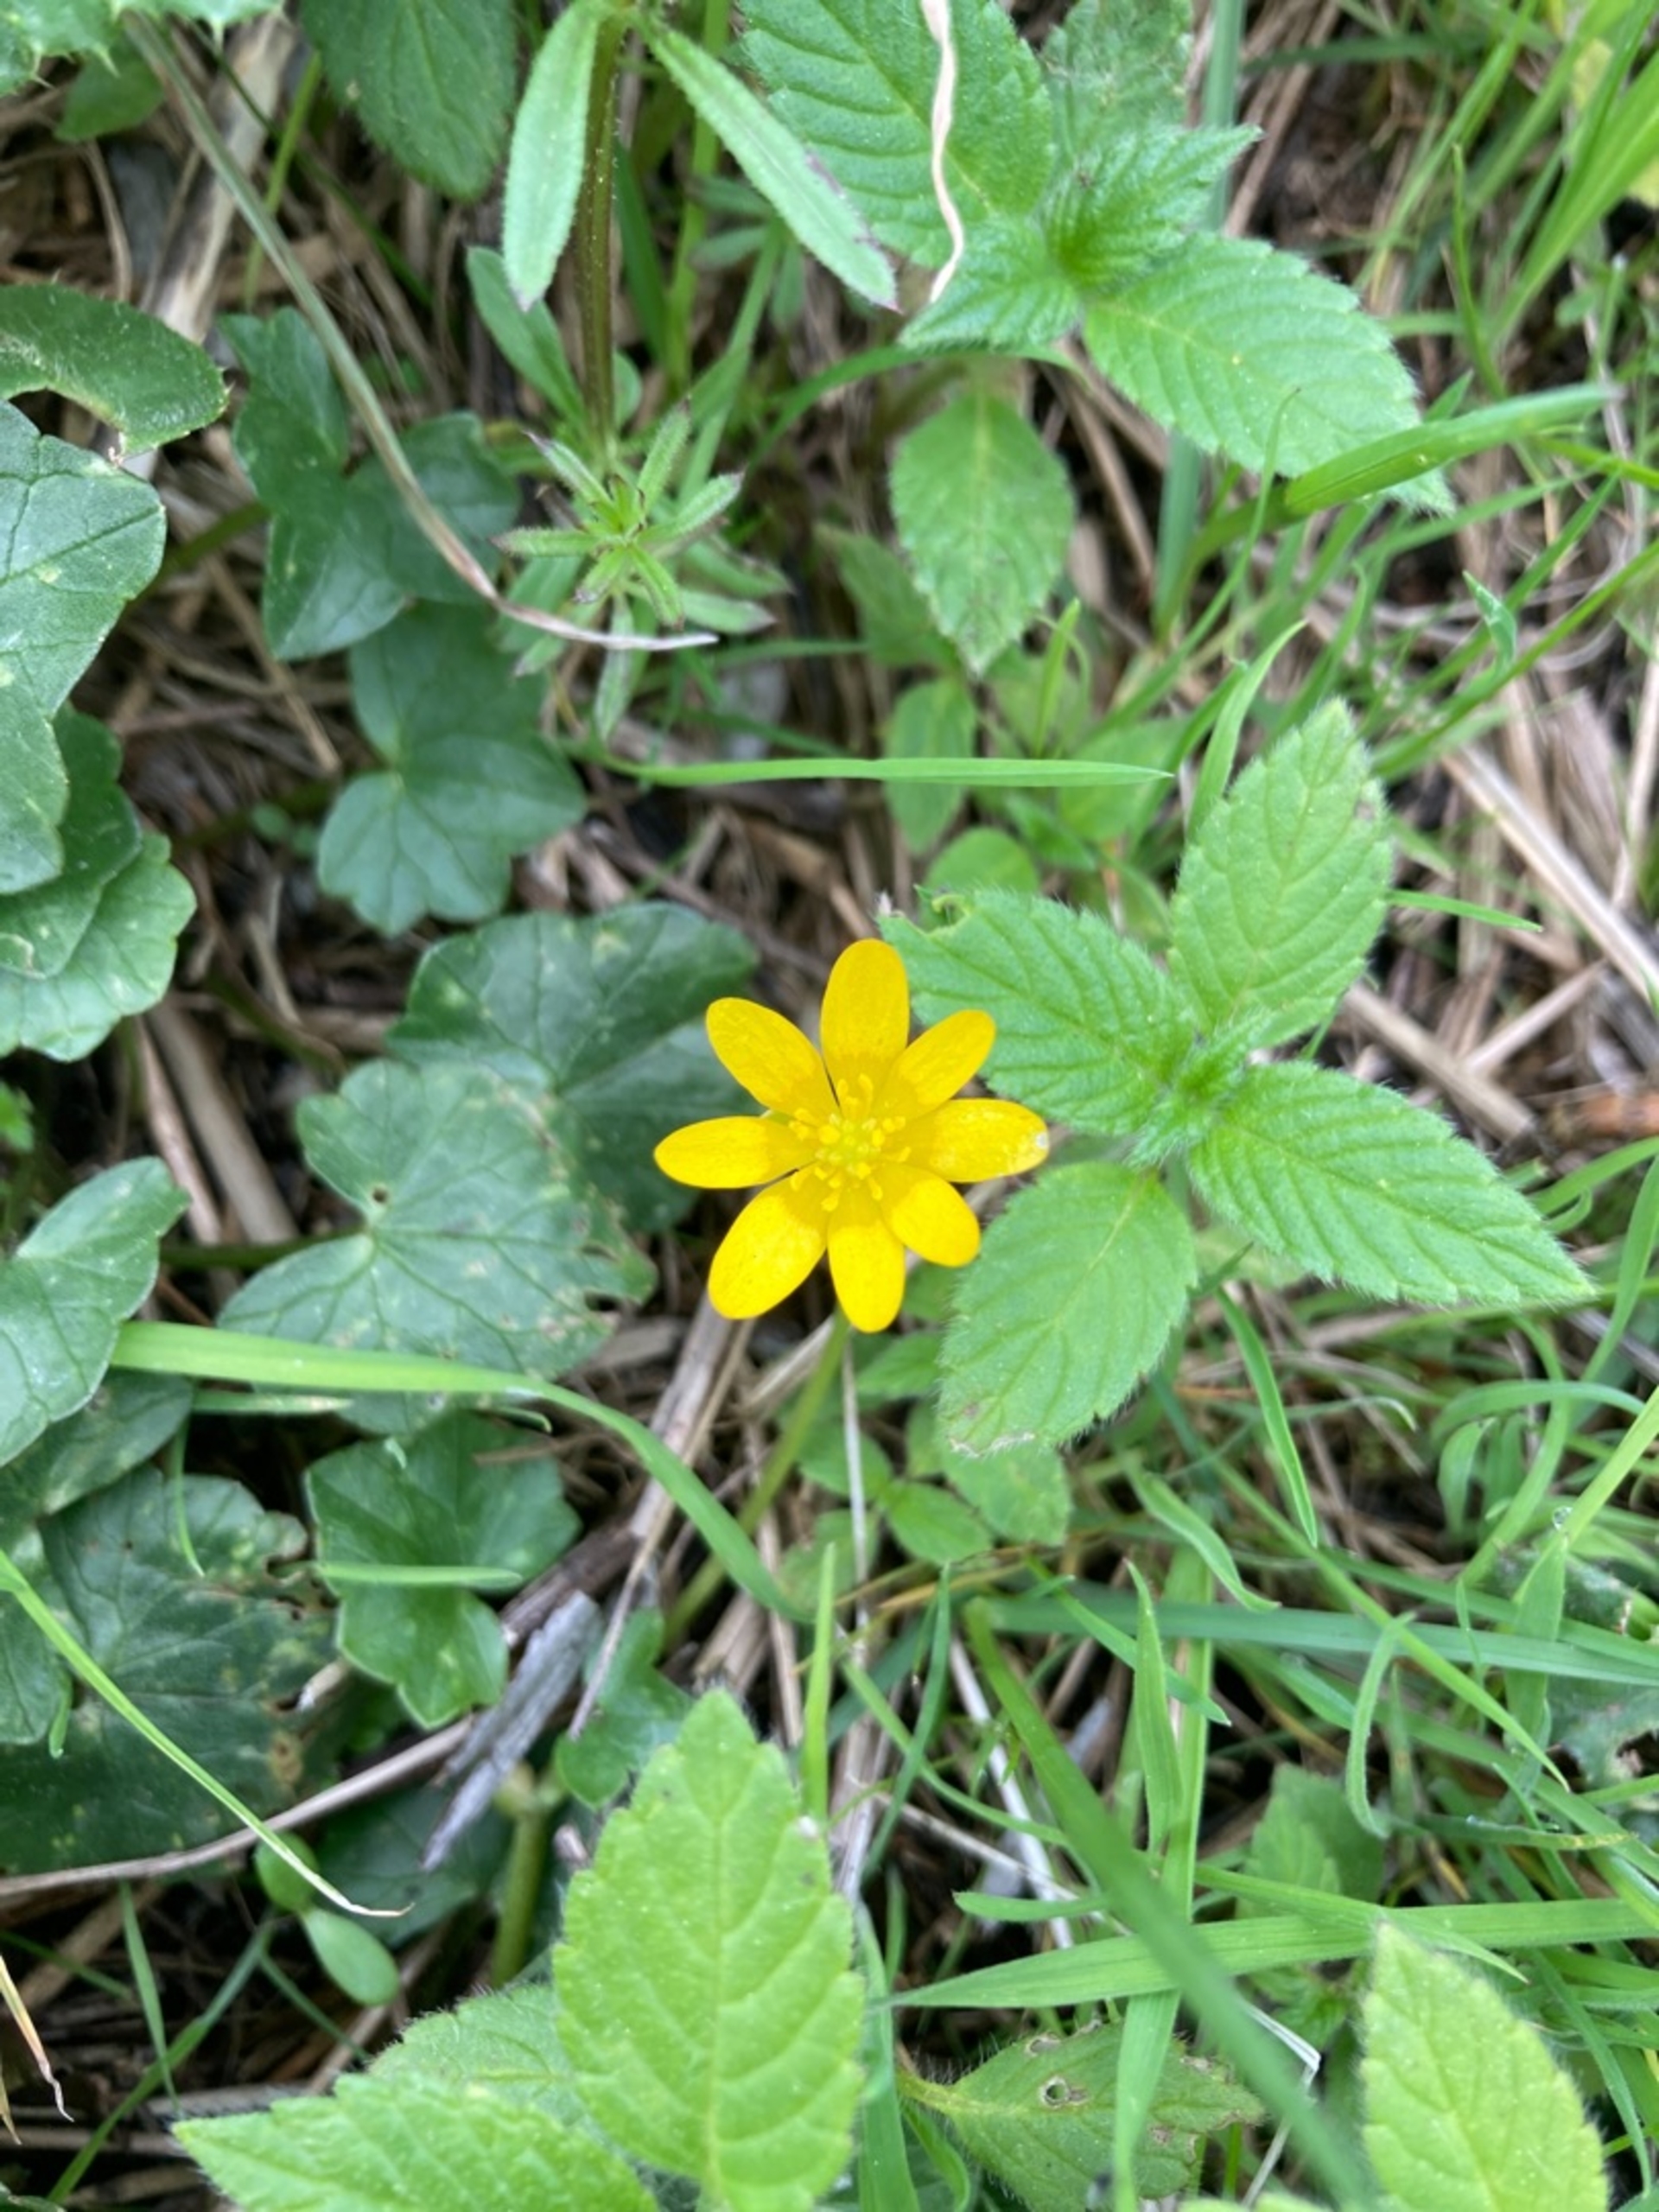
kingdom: Plantae
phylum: Tracheophyta
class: Magnoliopsida
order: Ranunculales
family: Ranunculaceae
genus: Ficaria
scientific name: Ficaria verna
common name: Vorterod
